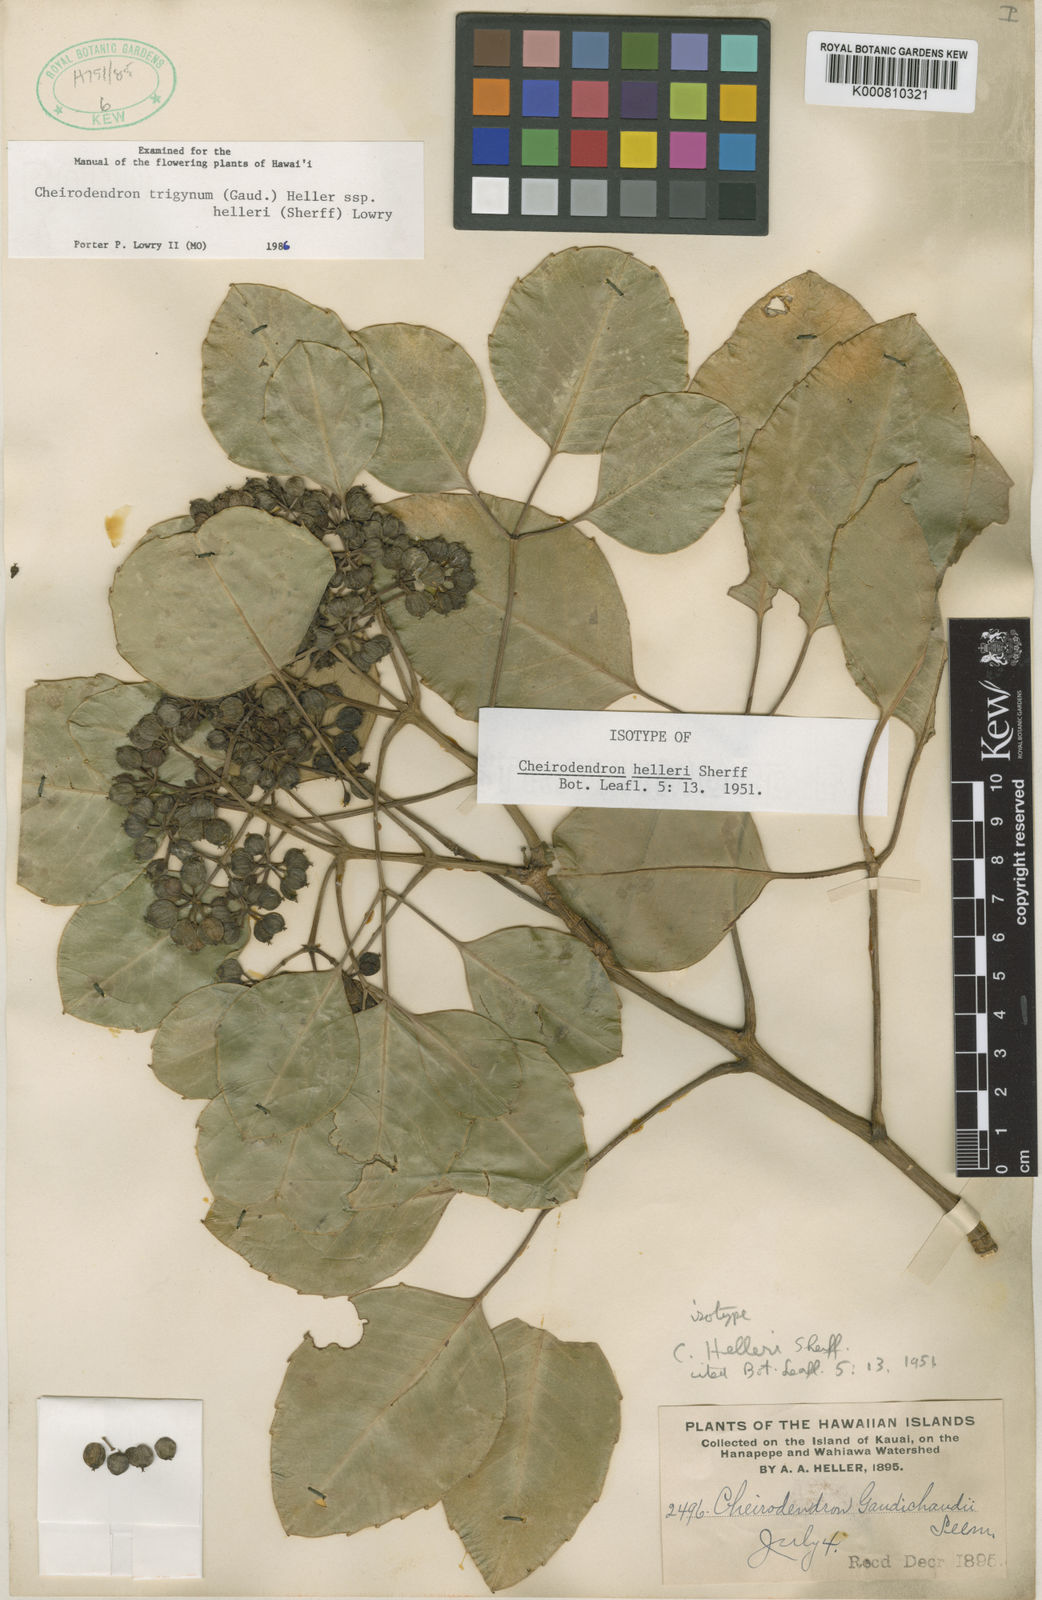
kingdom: Plantae
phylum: Tracheophyta
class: Magnoliopsida
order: Apiales
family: Araliaceae
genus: Cheirodendron
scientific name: Cheirodendron trigynum
